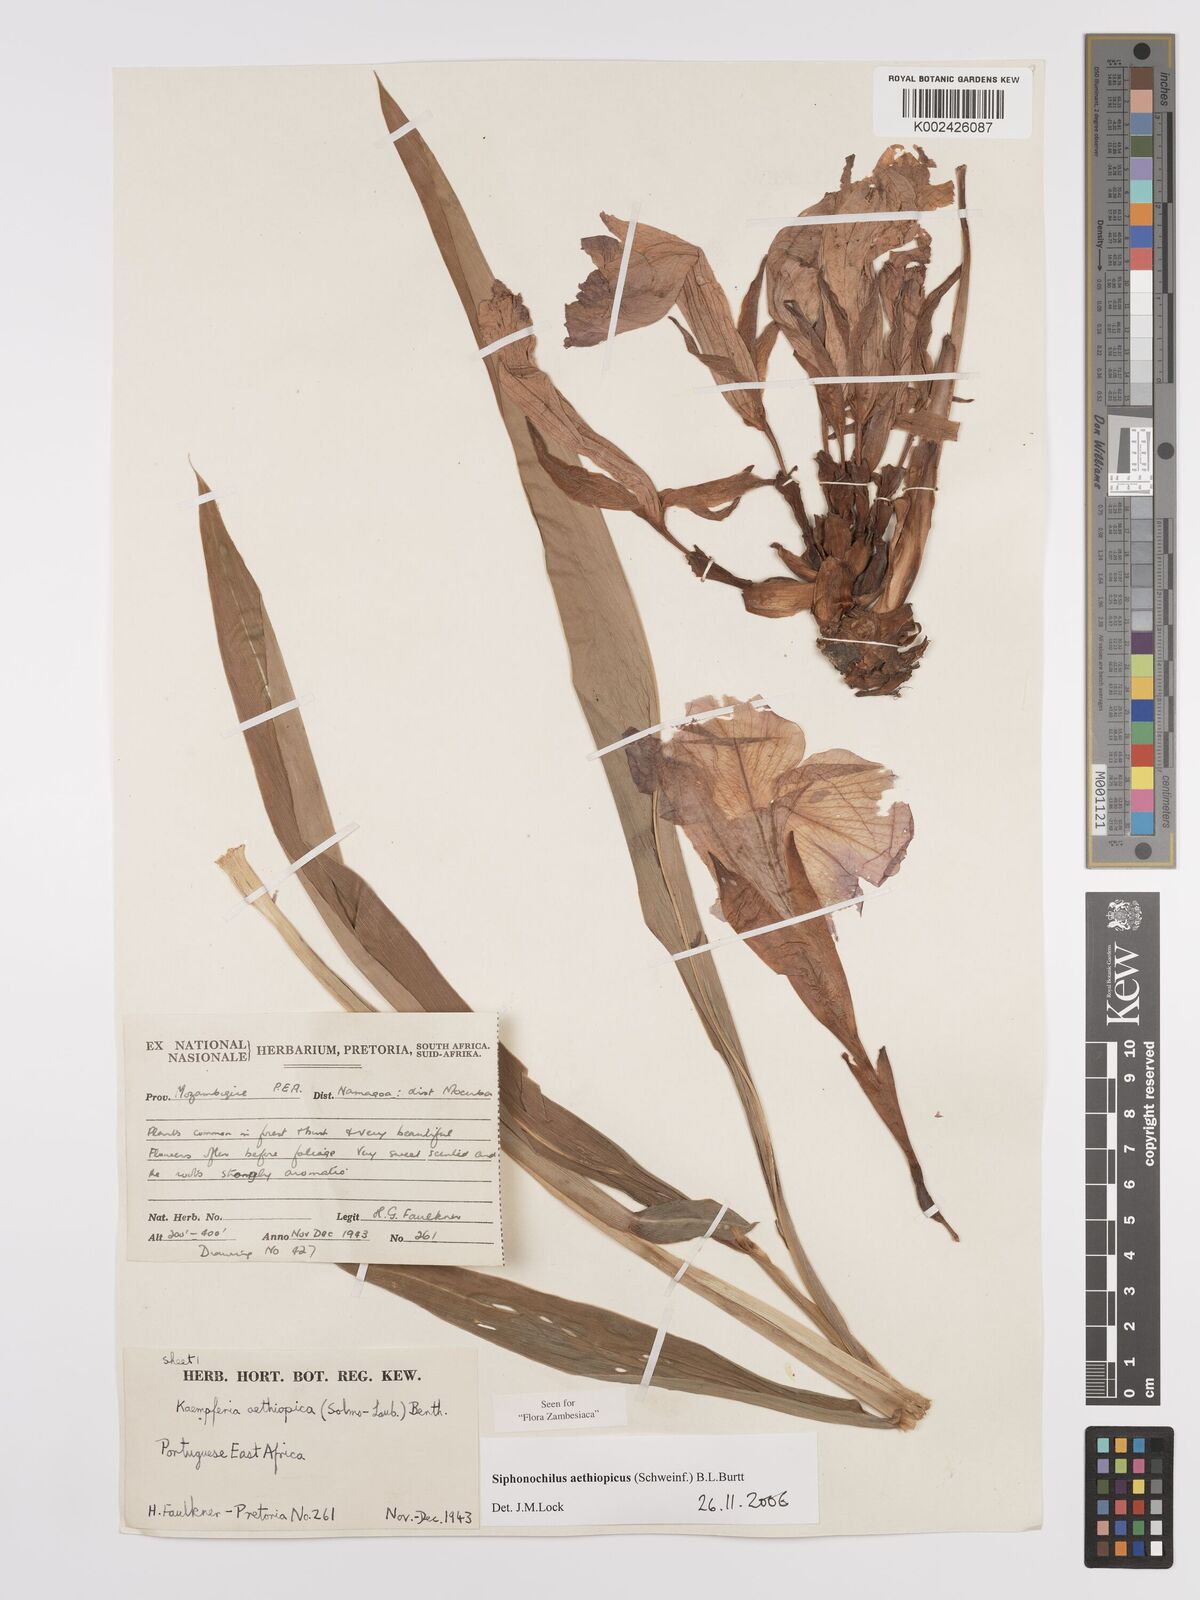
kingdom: Plantae
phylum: Tracheophyta
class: Liliopsida
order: Zingiberales
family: Zingiberaceae
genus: Siphonochilus
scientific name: Siphonochilus aethiopicus
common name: African-ginger
